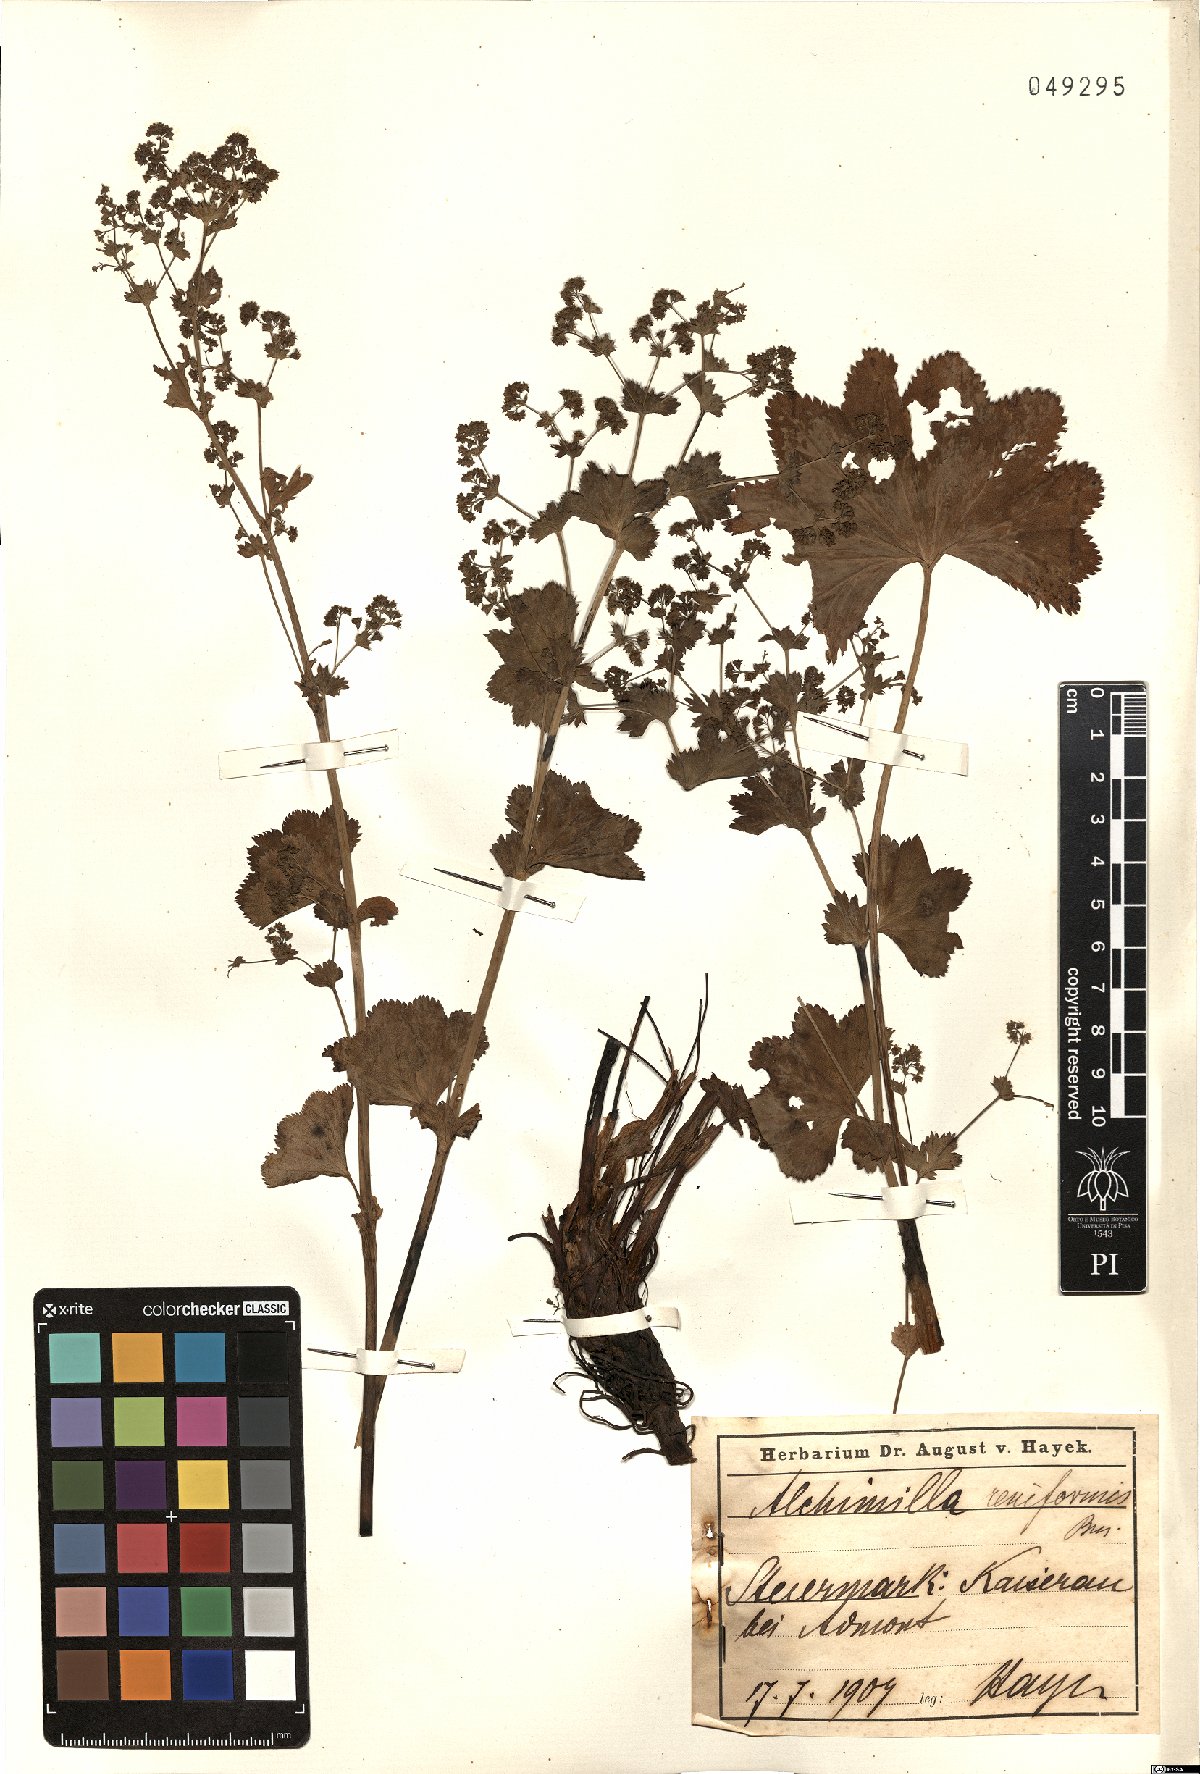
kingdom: Plantae
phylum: Tracheophyta
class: Magnoliopsida
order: Rosales
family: Rosaceae
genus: Alchemilla
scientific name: Alchemilla reniformis
